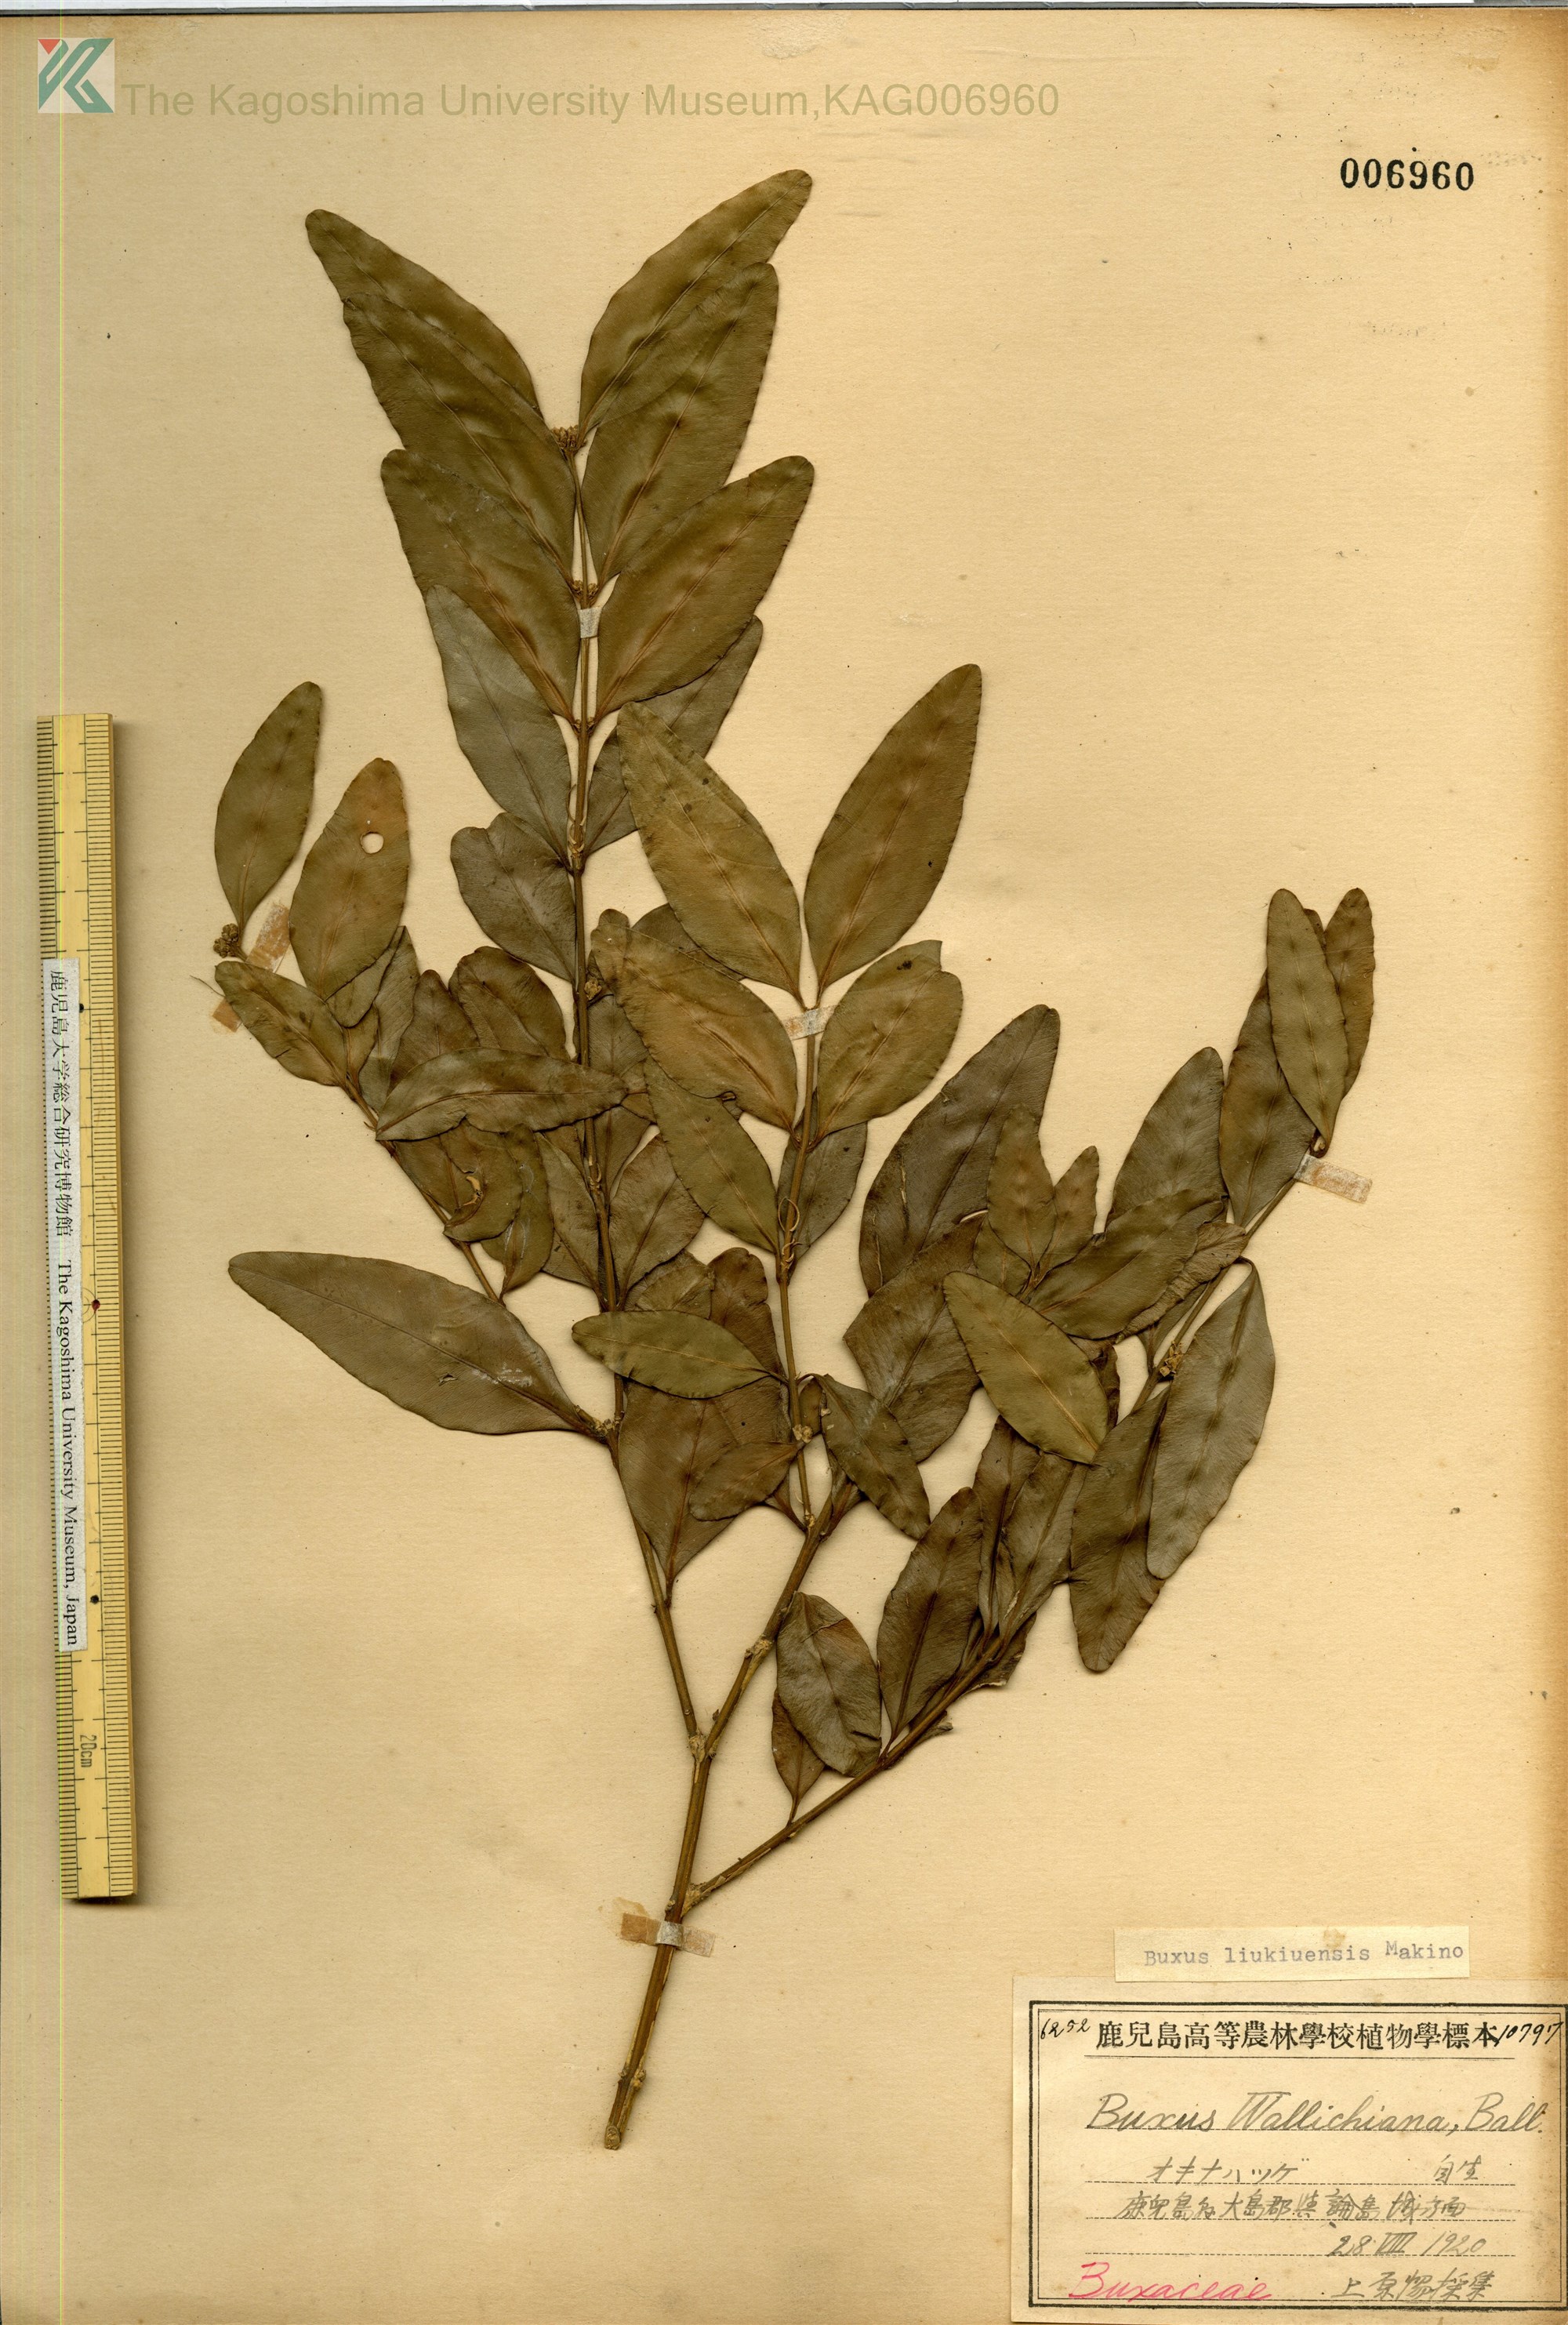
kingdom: Plantae
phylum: Tracheophyta
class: Magnoliopsida
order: Buxales
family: Buxaceae
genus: Buxus
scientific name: Buxus liukiuensis
